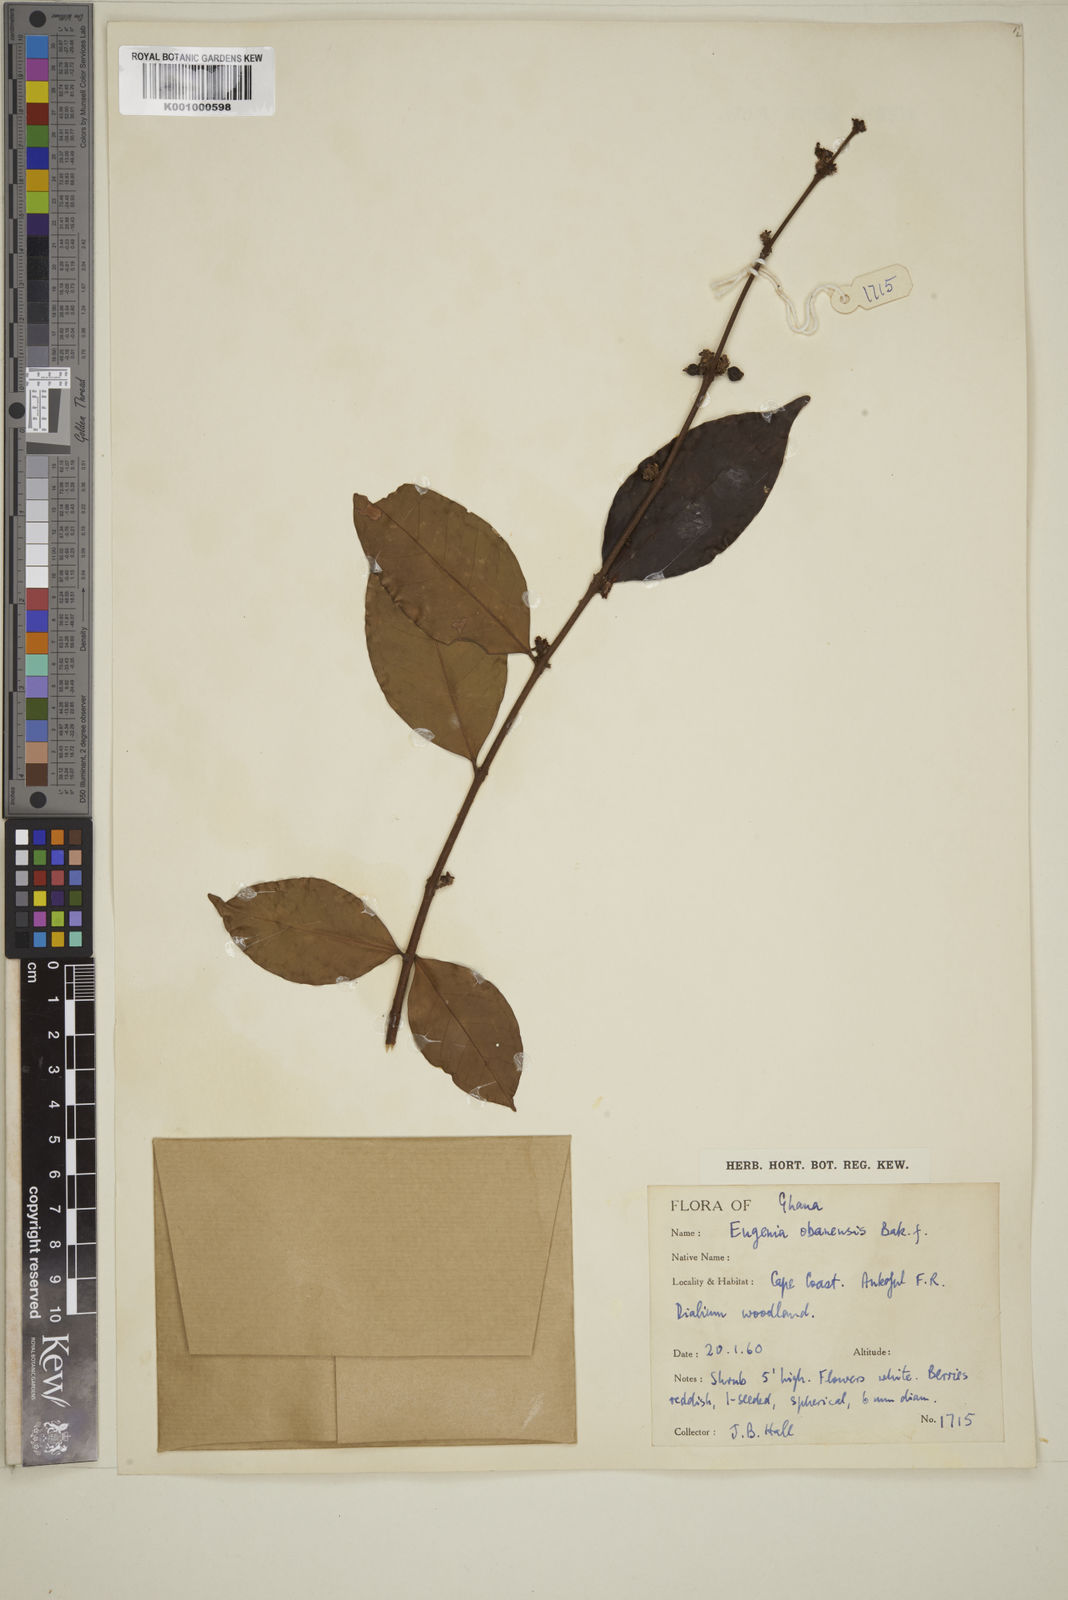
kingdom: Plantae
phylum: Tracheophyta
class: Magnoliopsida
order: Myrtales
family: Myrtaceae
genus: Eugenia
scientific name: Eugenia obanensis
